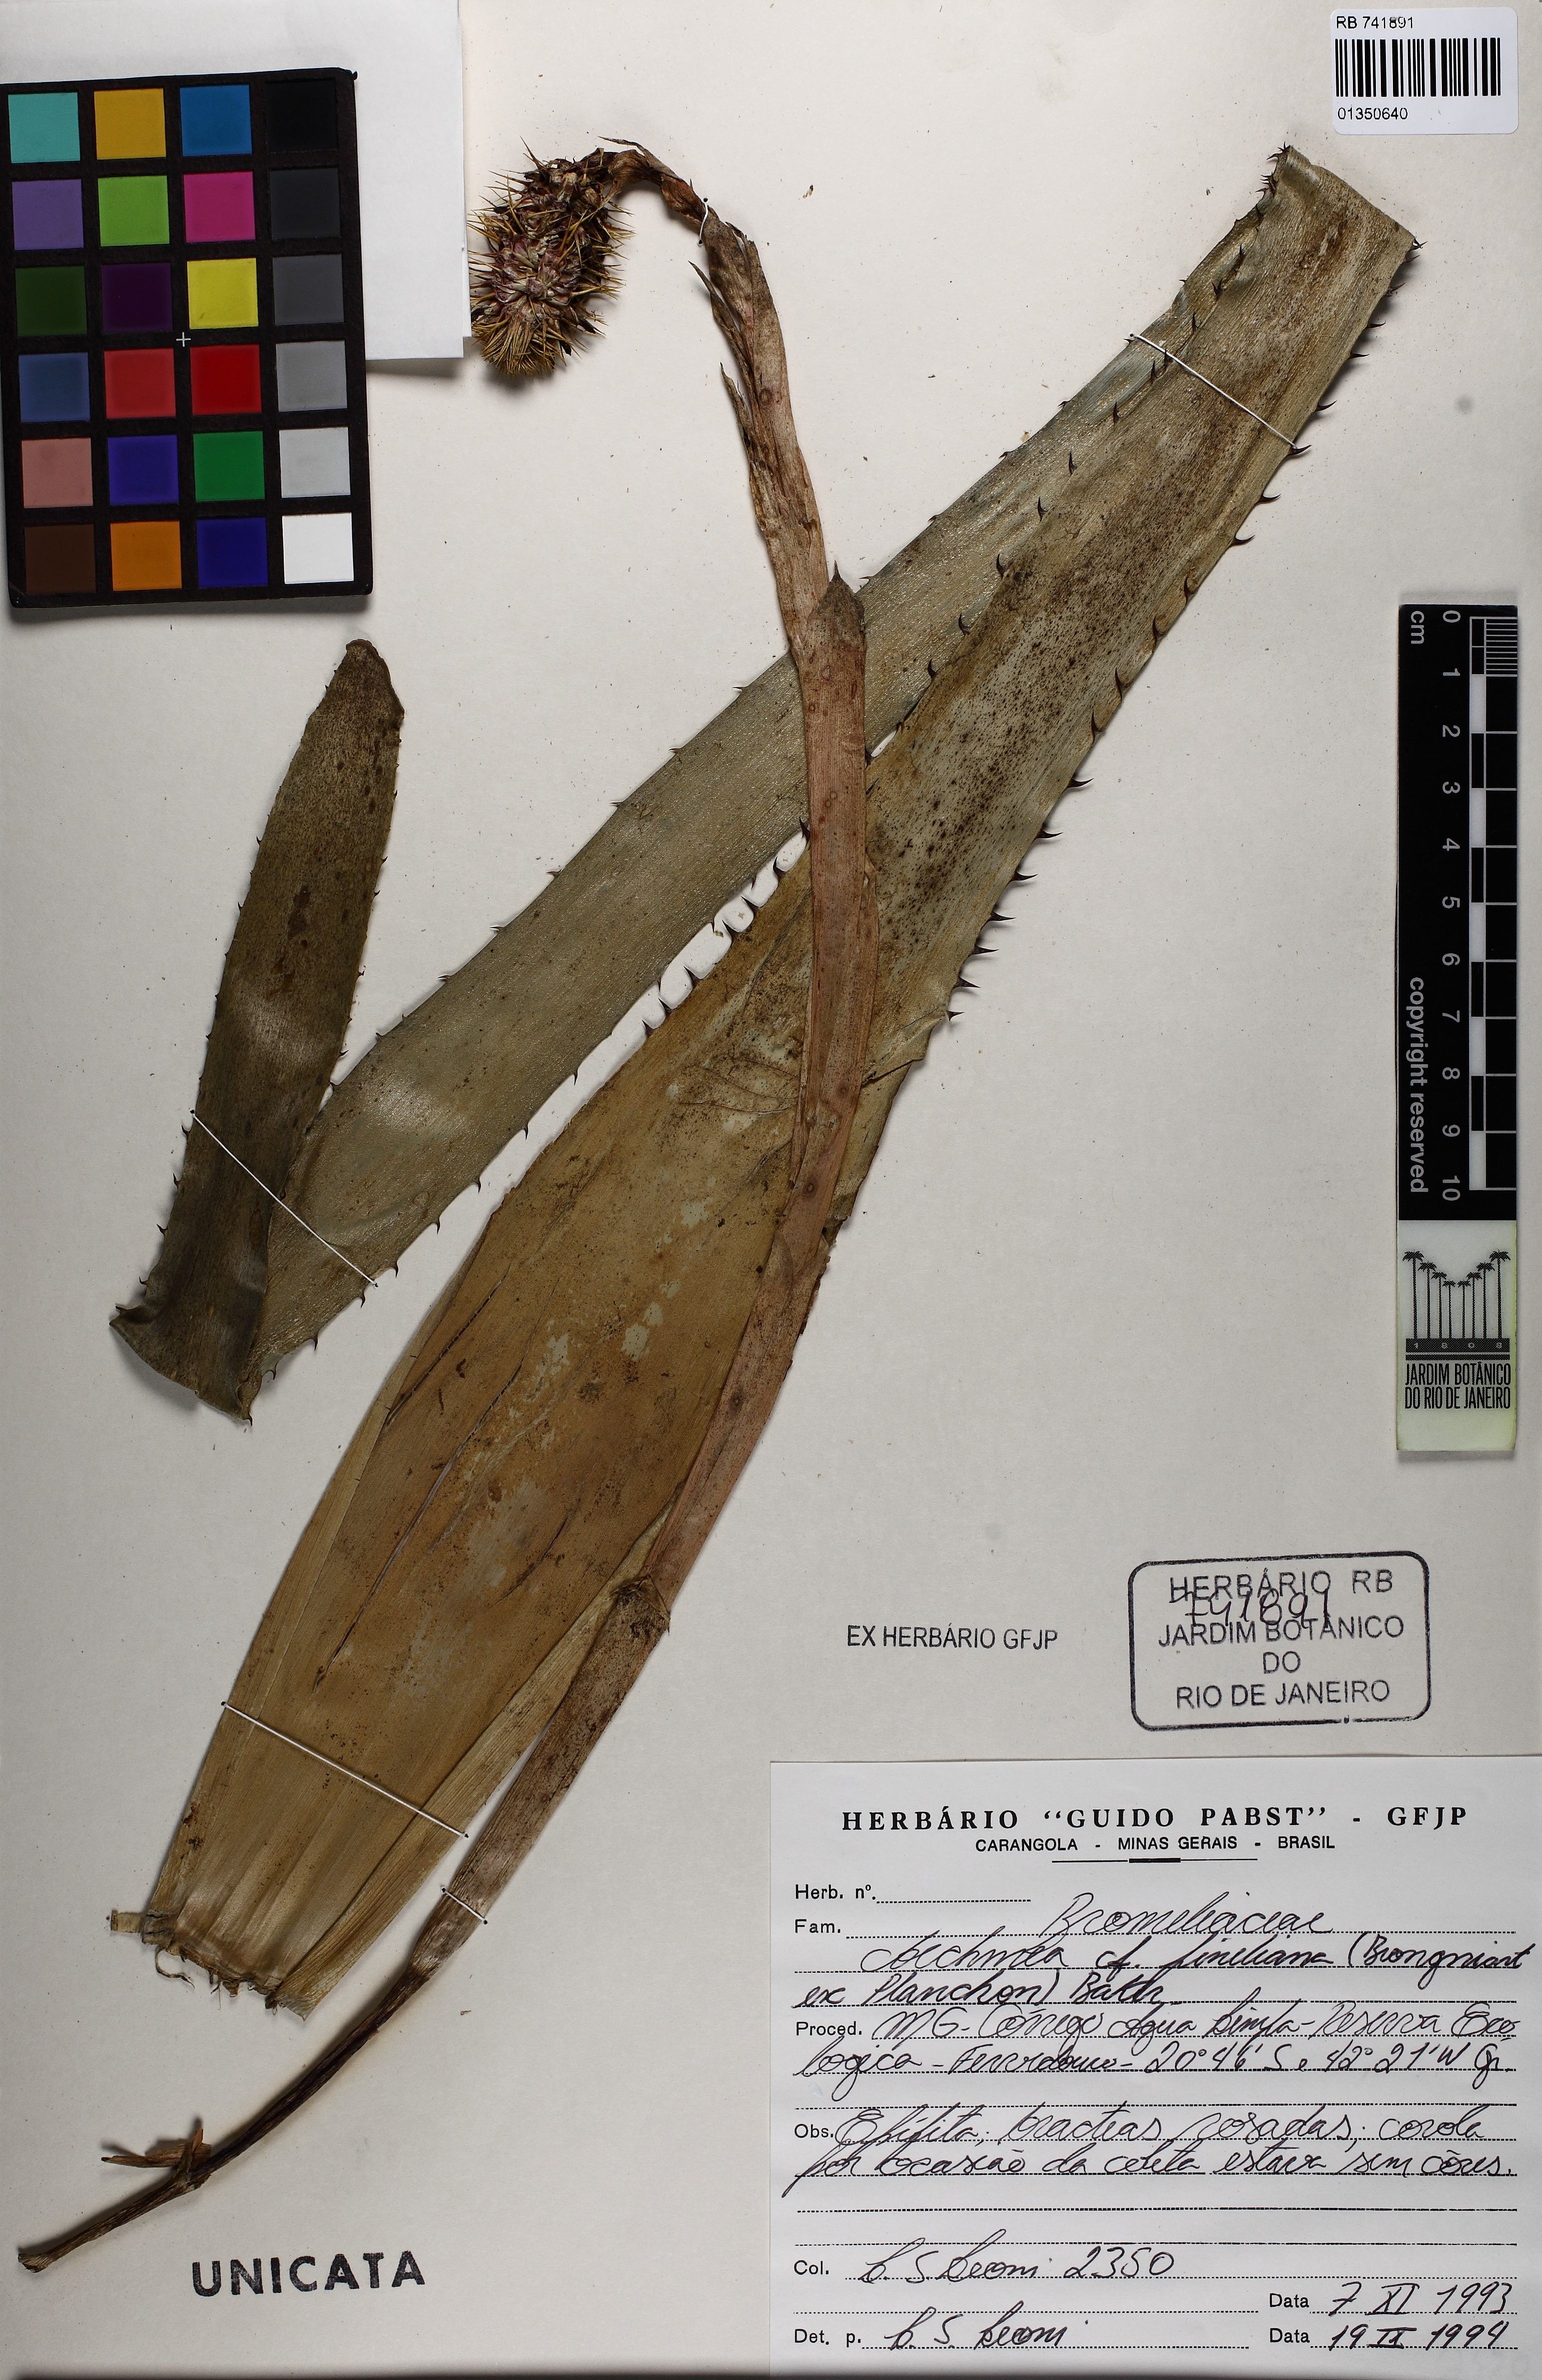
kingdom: Plantae
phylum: Tracheophyta
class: Liliopsida
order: Poales
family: Bromeliaceae
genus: Aechmea
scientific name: Aechmea pineliana
